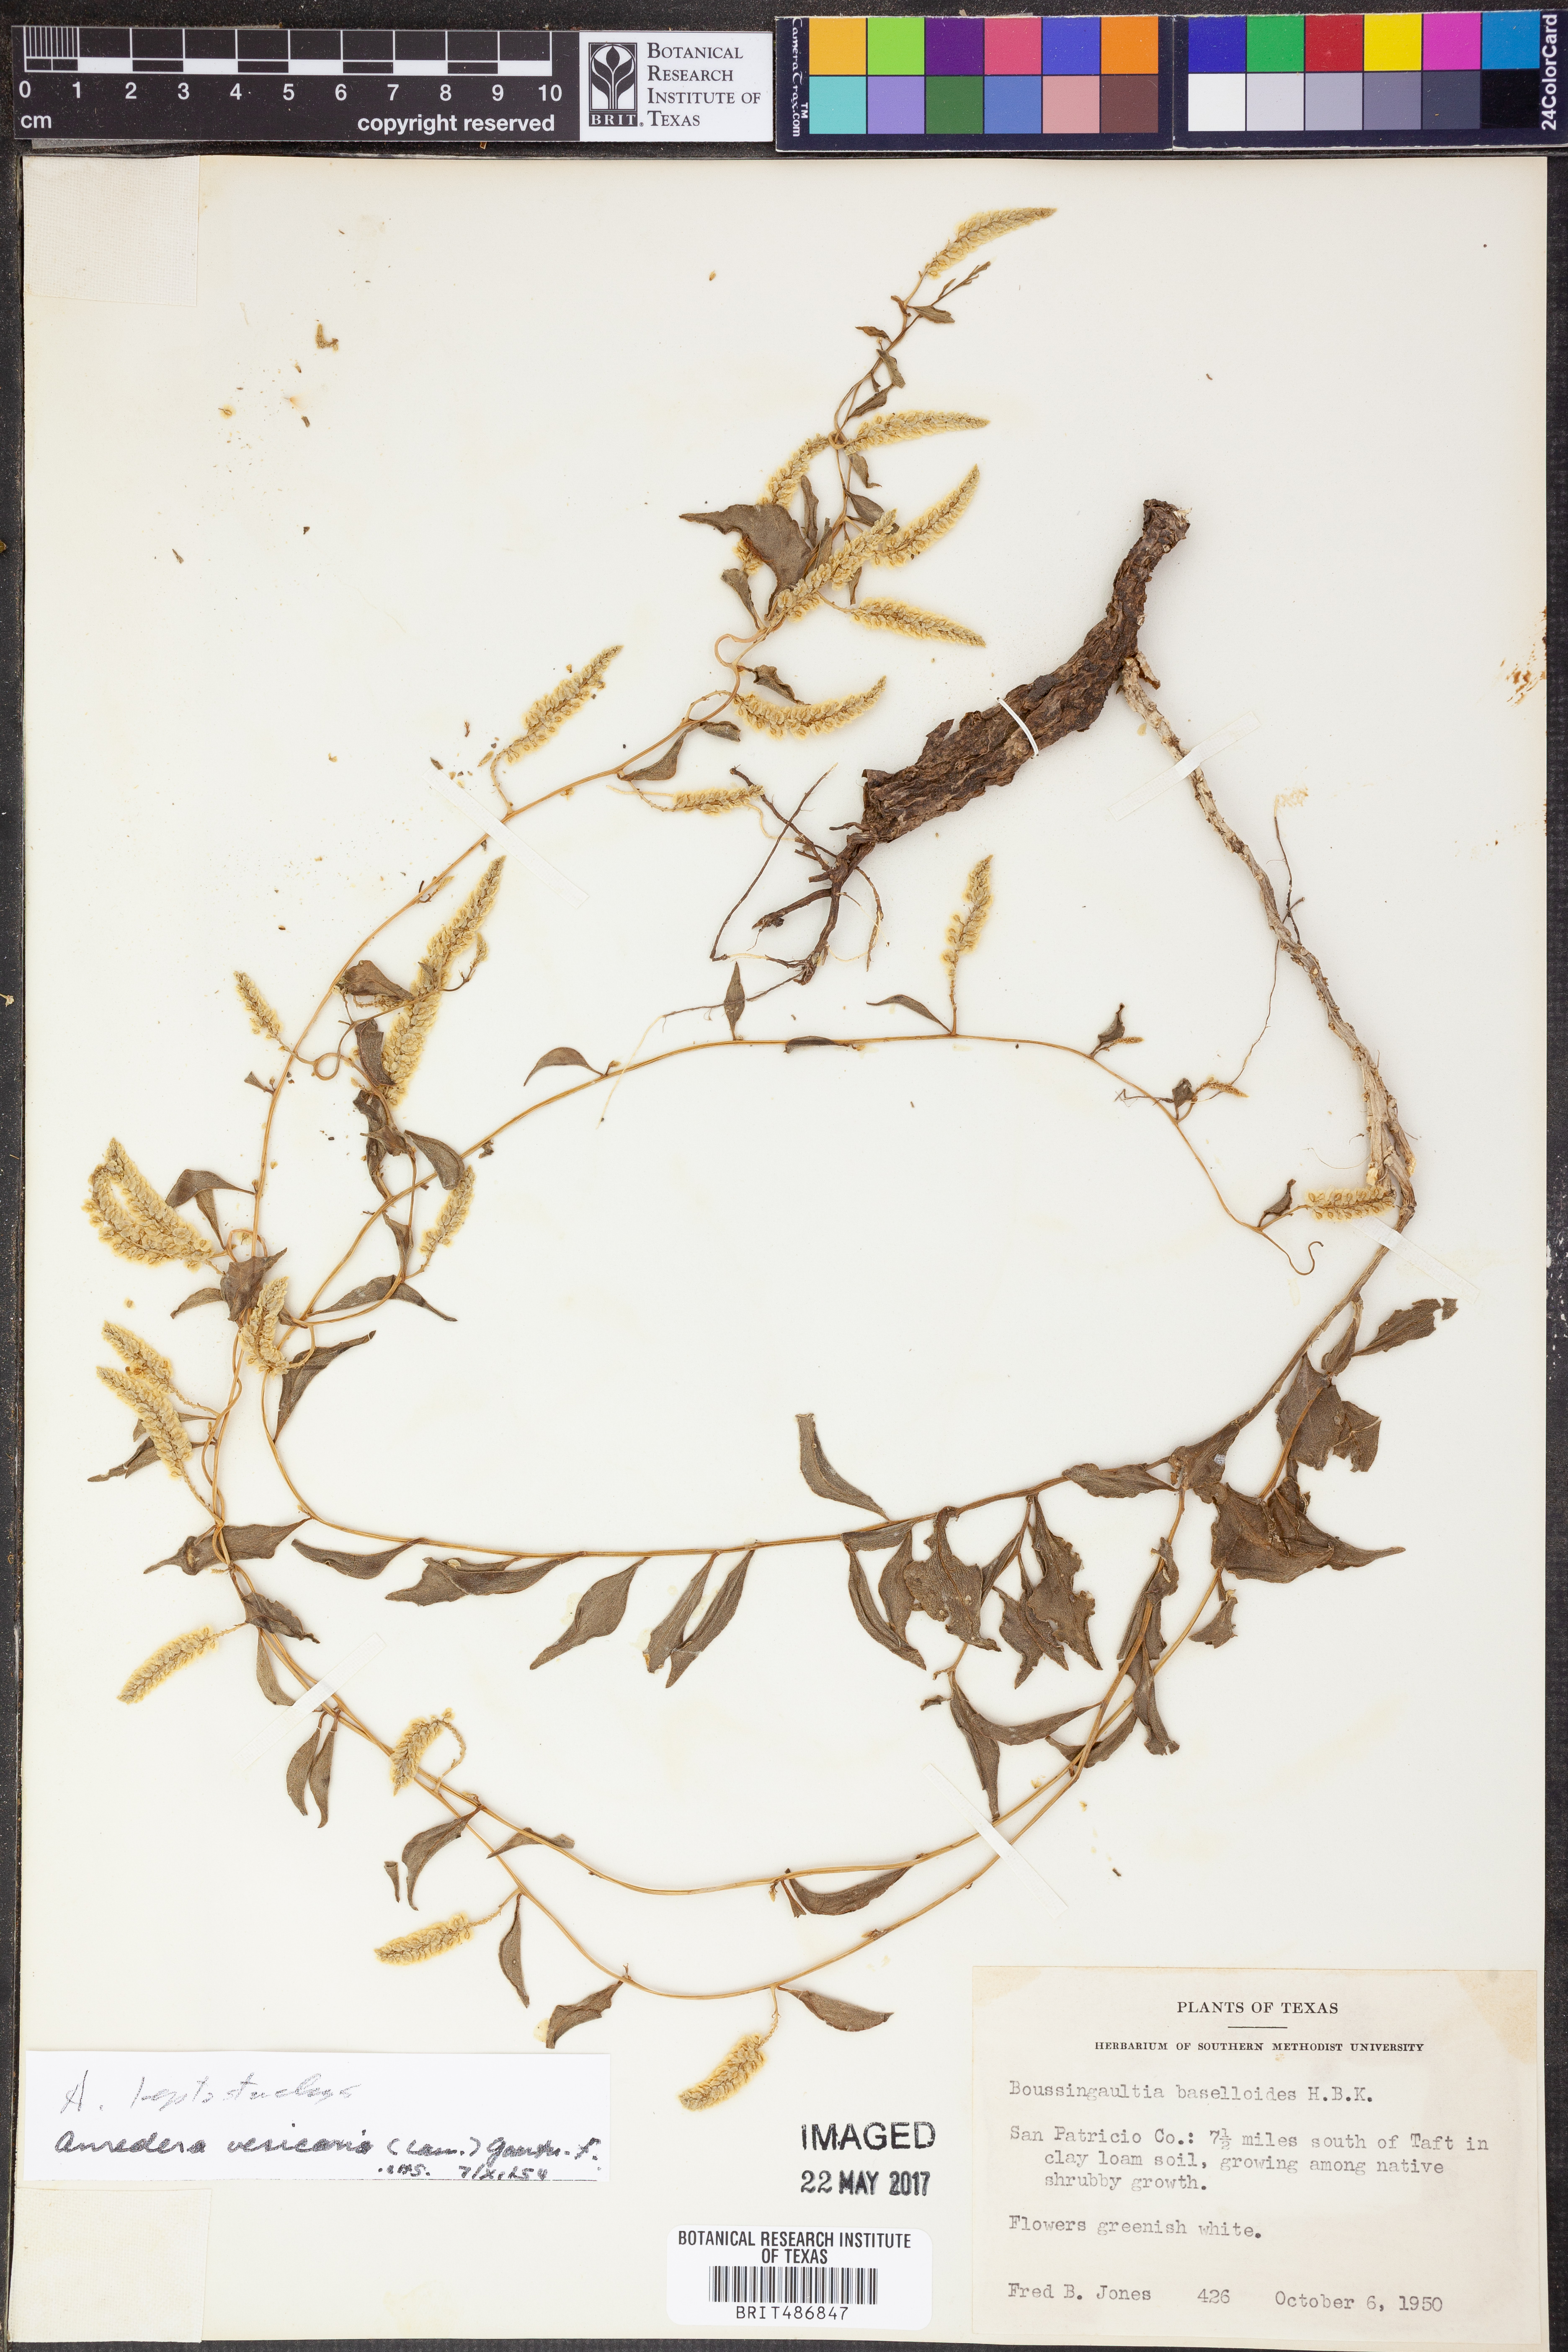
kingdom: Plantae
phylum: Tracheophyta
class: Magnoliopsida
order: Caryophyllales
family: Basellaceae
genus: Anredera
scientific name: Anredera baselloides
